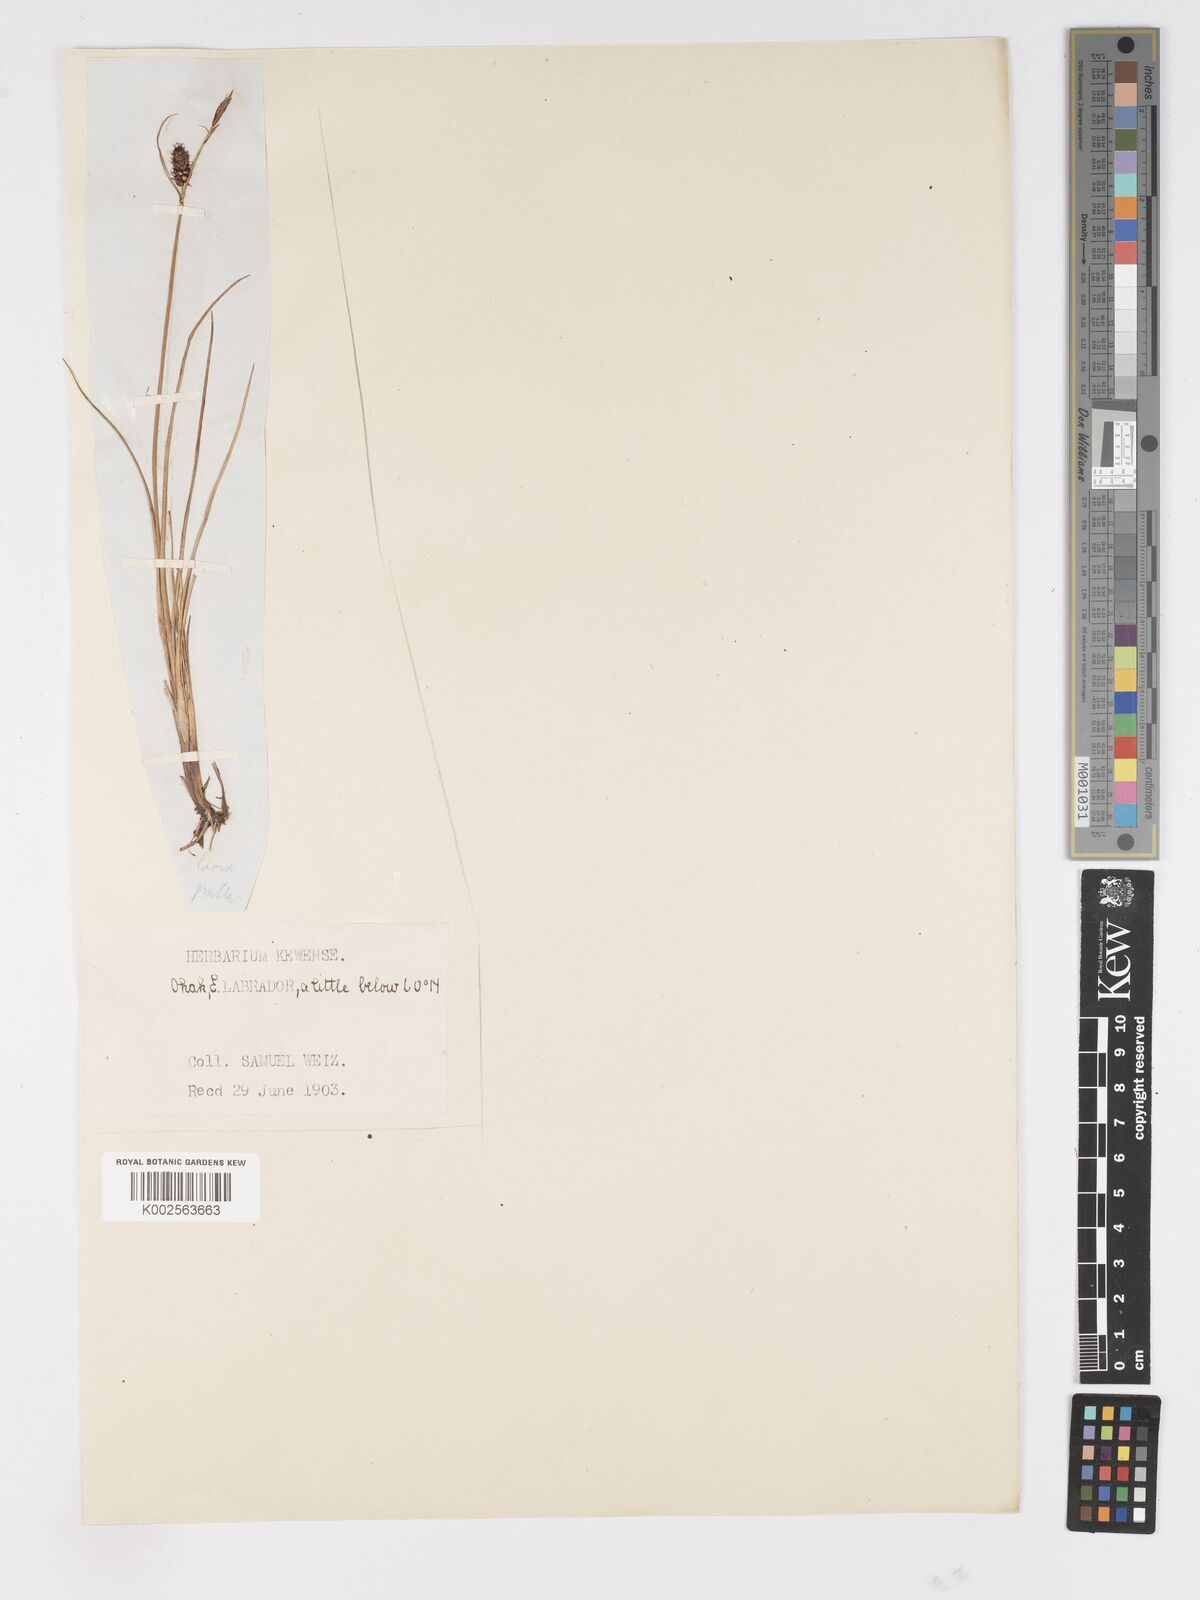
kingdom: Plantae
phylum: Tracheophyta
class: Liliopsida
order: Poales
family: Cyperaceae
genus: Carex
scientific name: Carex saxatilis
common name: Russet sedge
